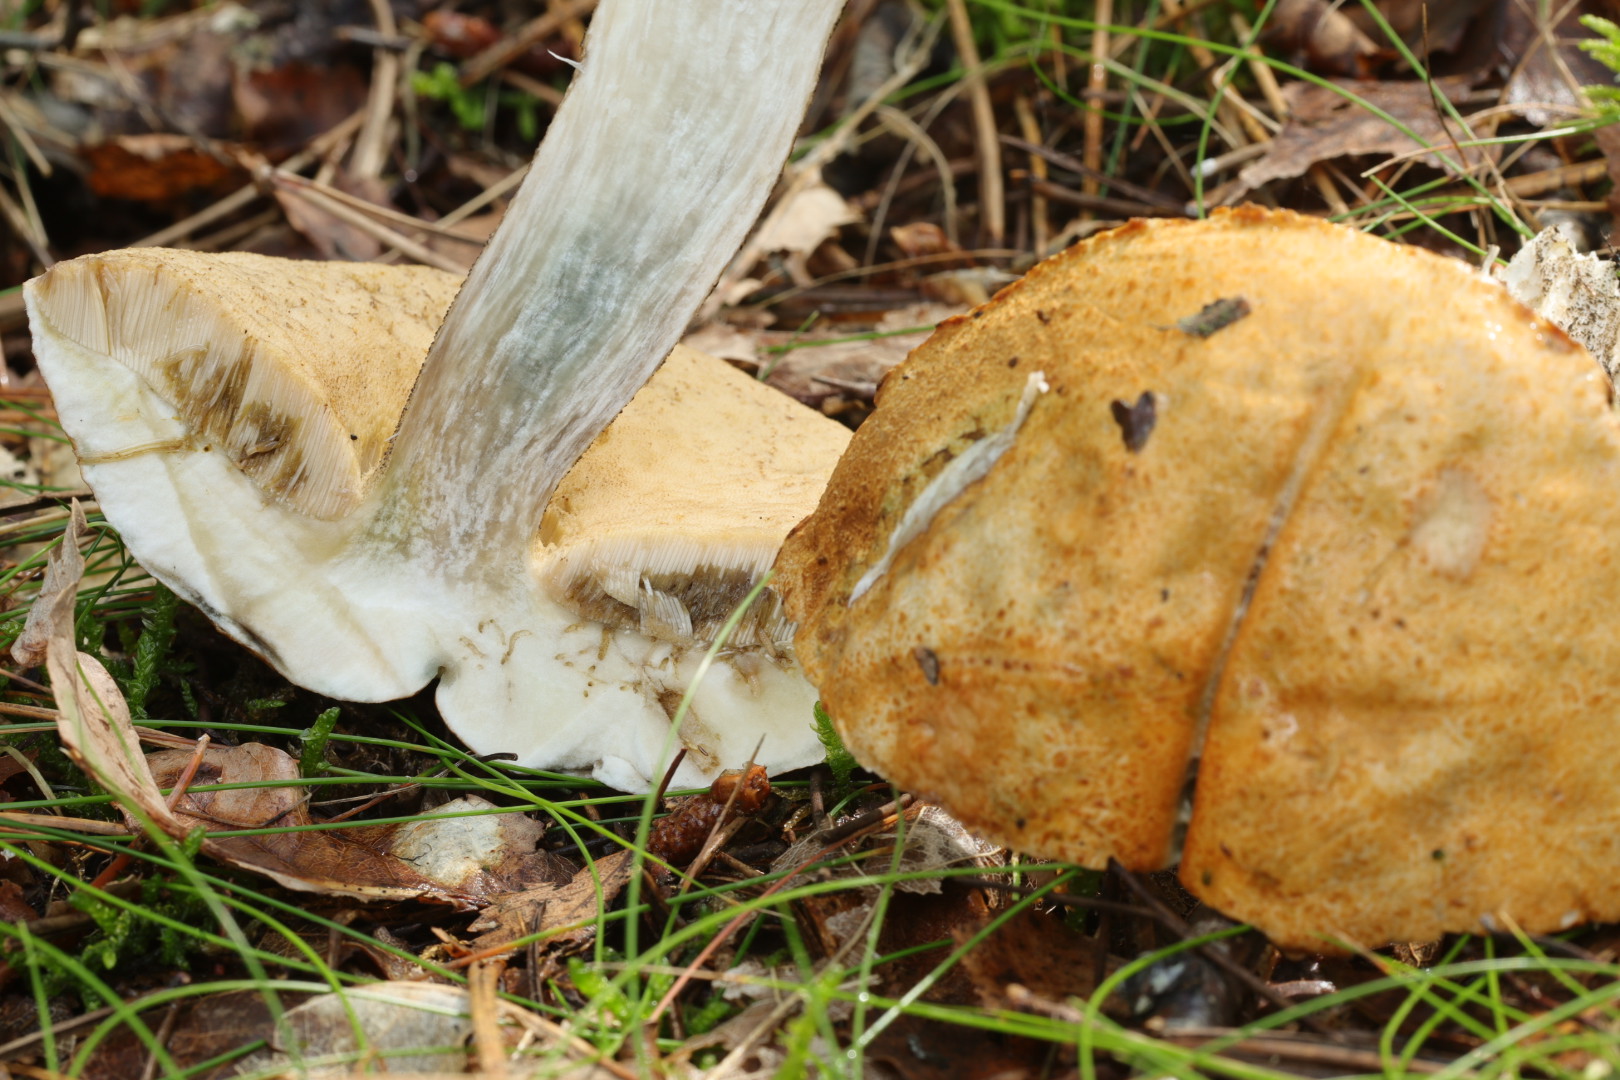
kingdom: Fungi
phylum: Basidiomycota
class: Agaricomycetes
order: Boletales
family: Boletaceae
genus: Leccinum
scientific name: Leccinum versipelle
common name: orange skælrørhat
